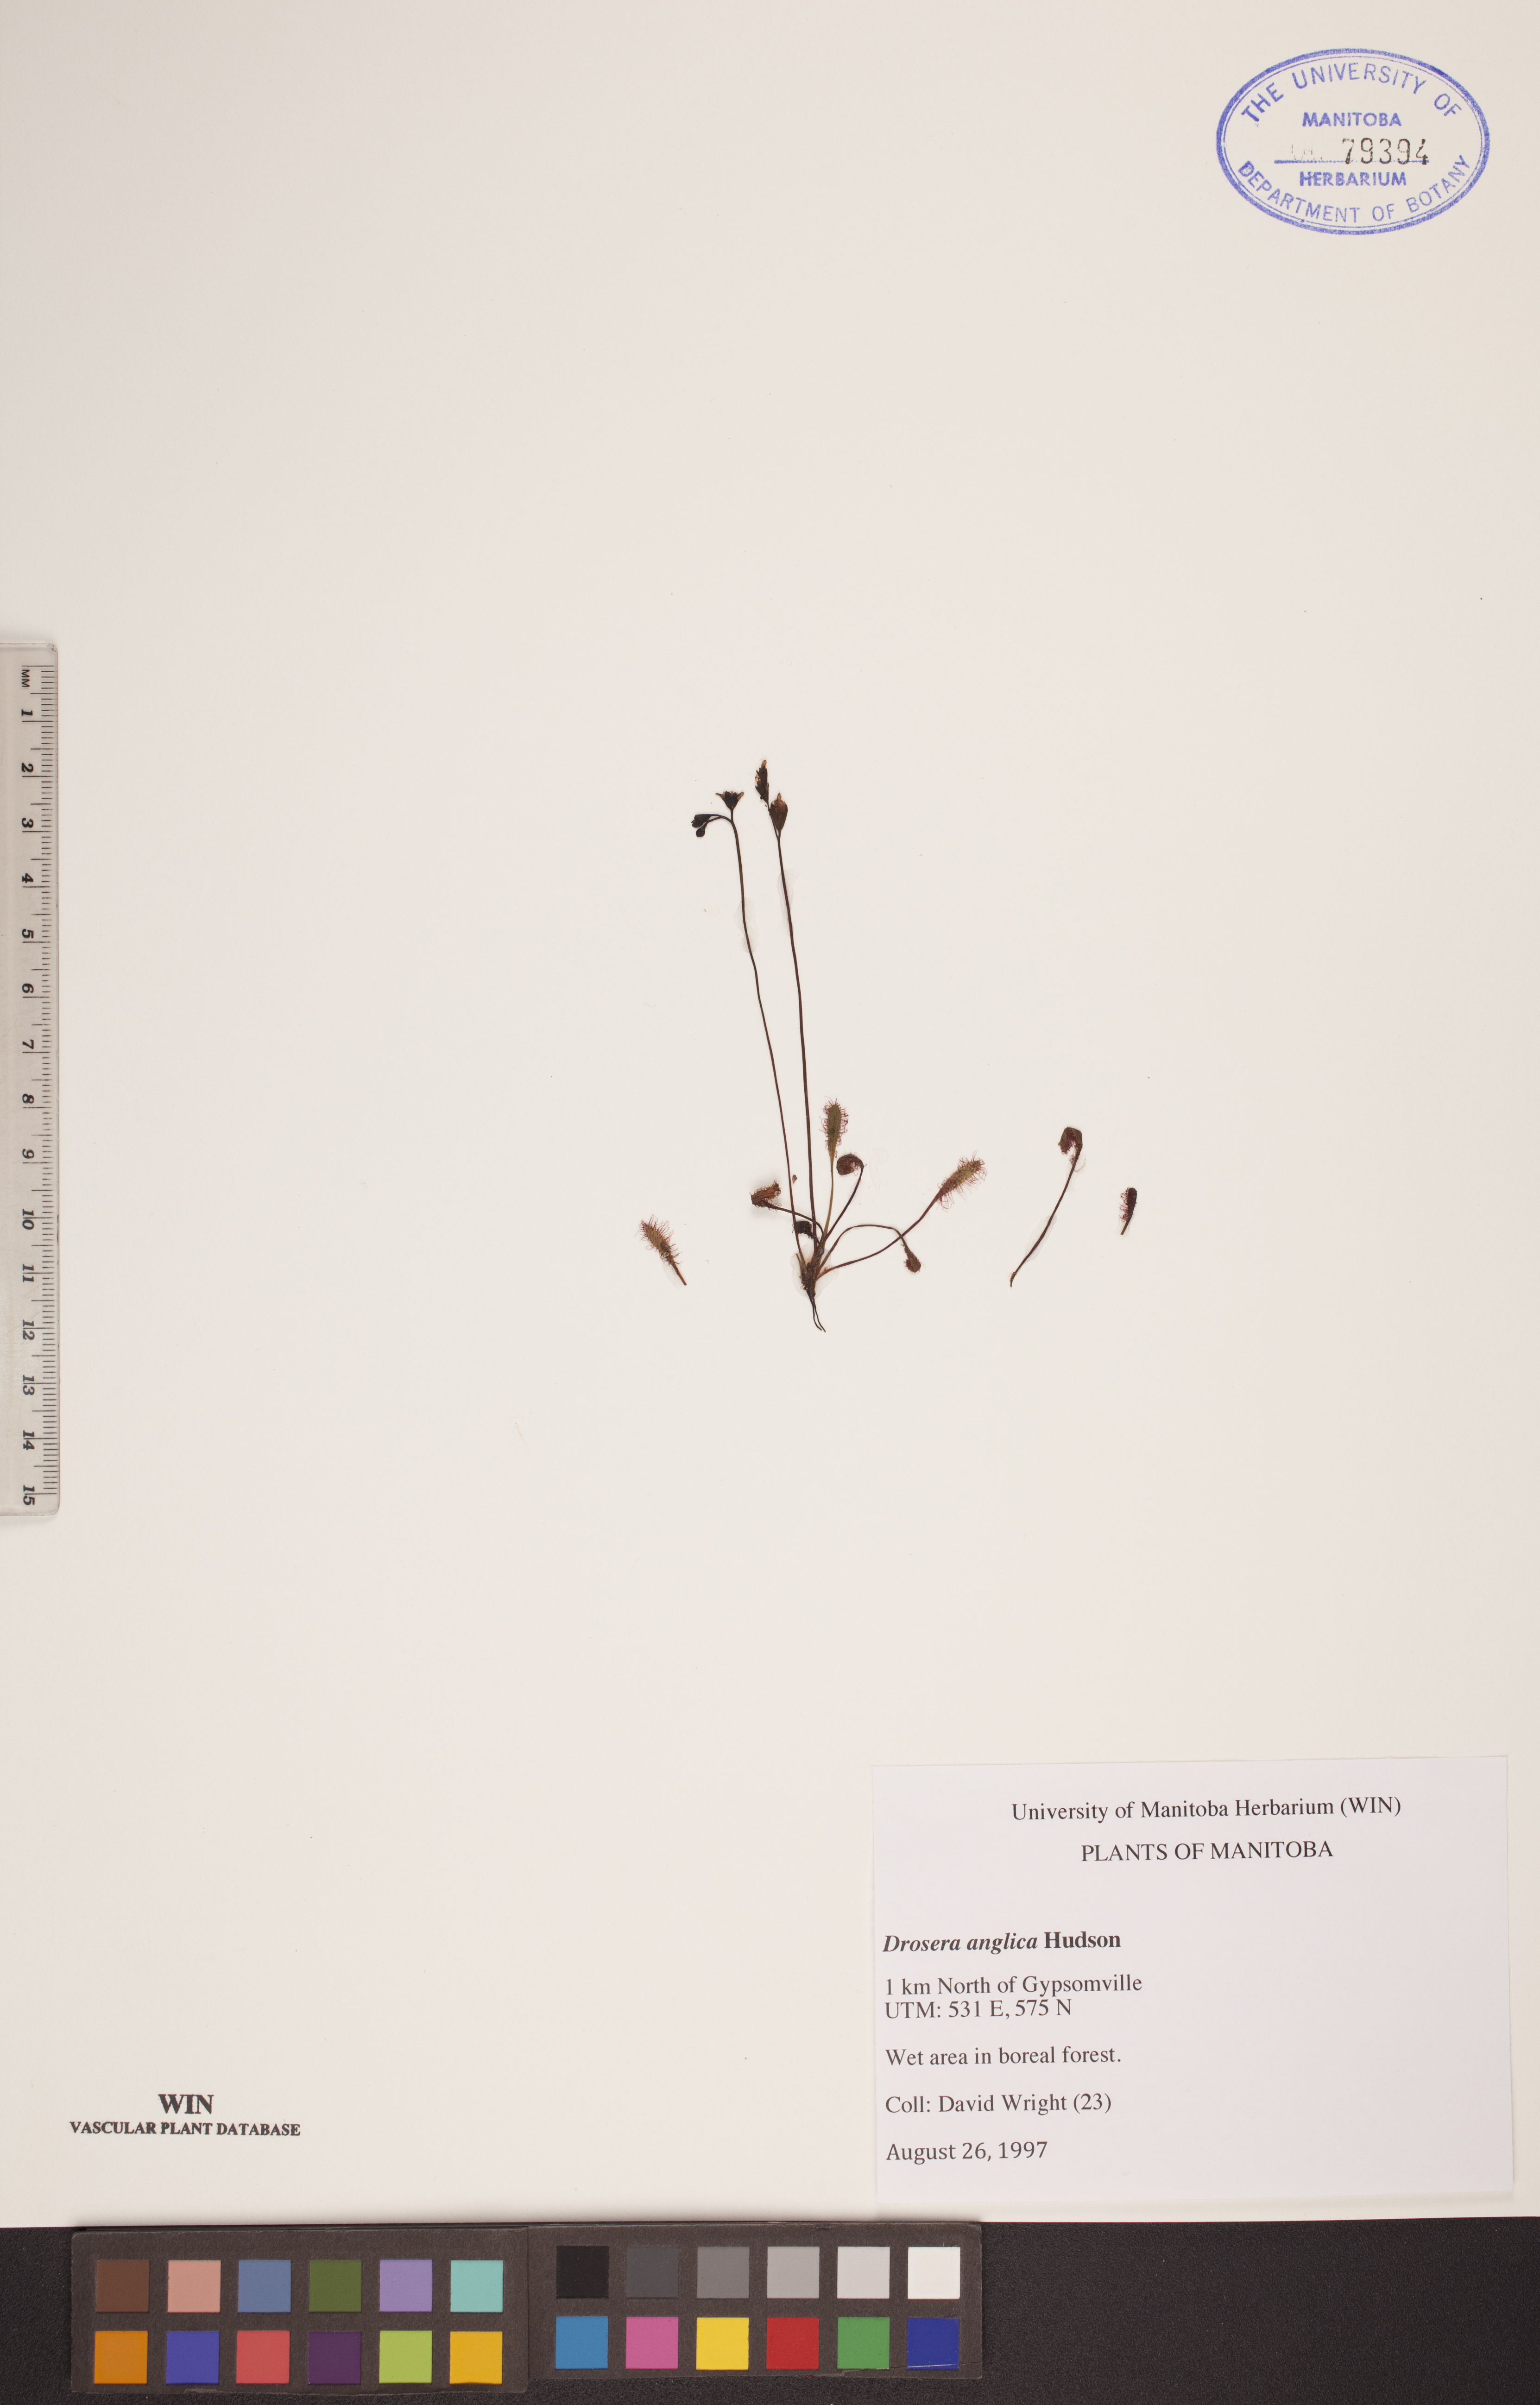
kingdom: Plantae
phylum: Tracheophyta
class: Magnoliopsida
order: Caryophyllales
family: Droseraceae
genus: Drosera
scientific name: Drosera anglica
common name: Great sundew
